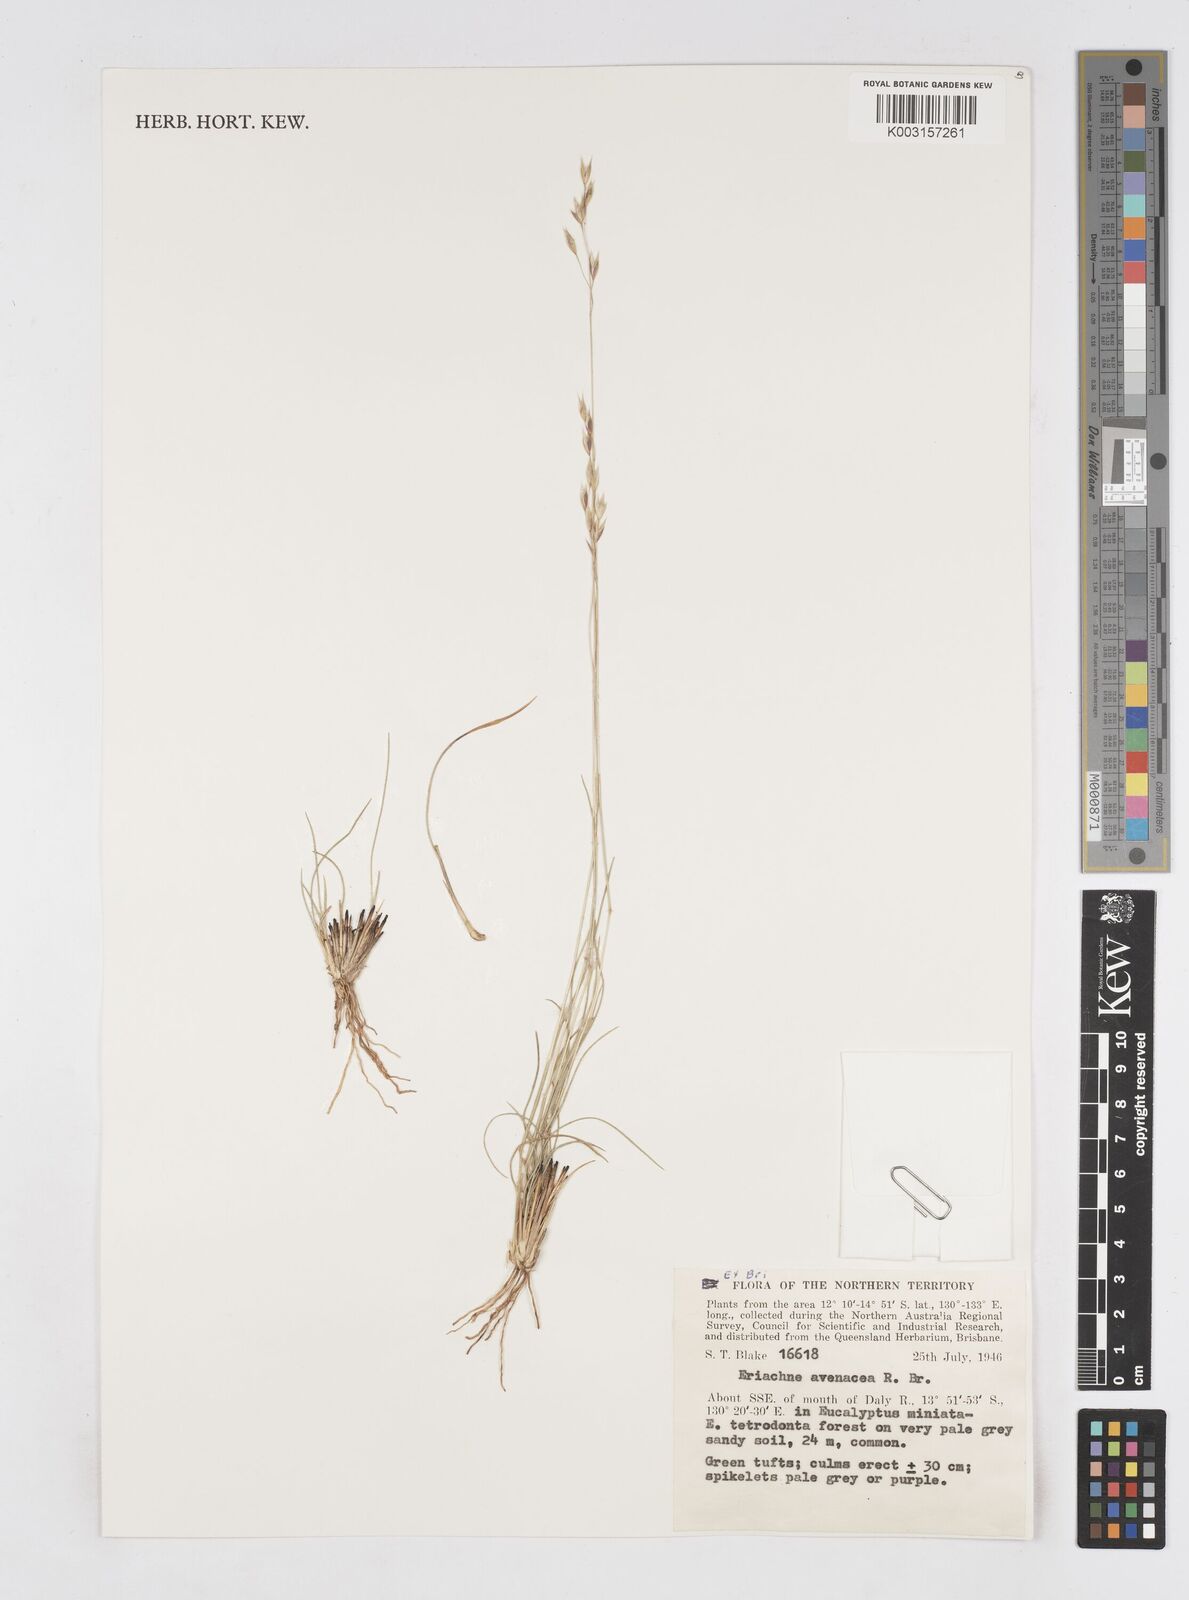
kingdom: Plantae
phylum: Tracheophyta
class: Liliopsida
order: Poales
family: Poaceae
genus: Eriachne
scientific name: Eriachne avenacea
